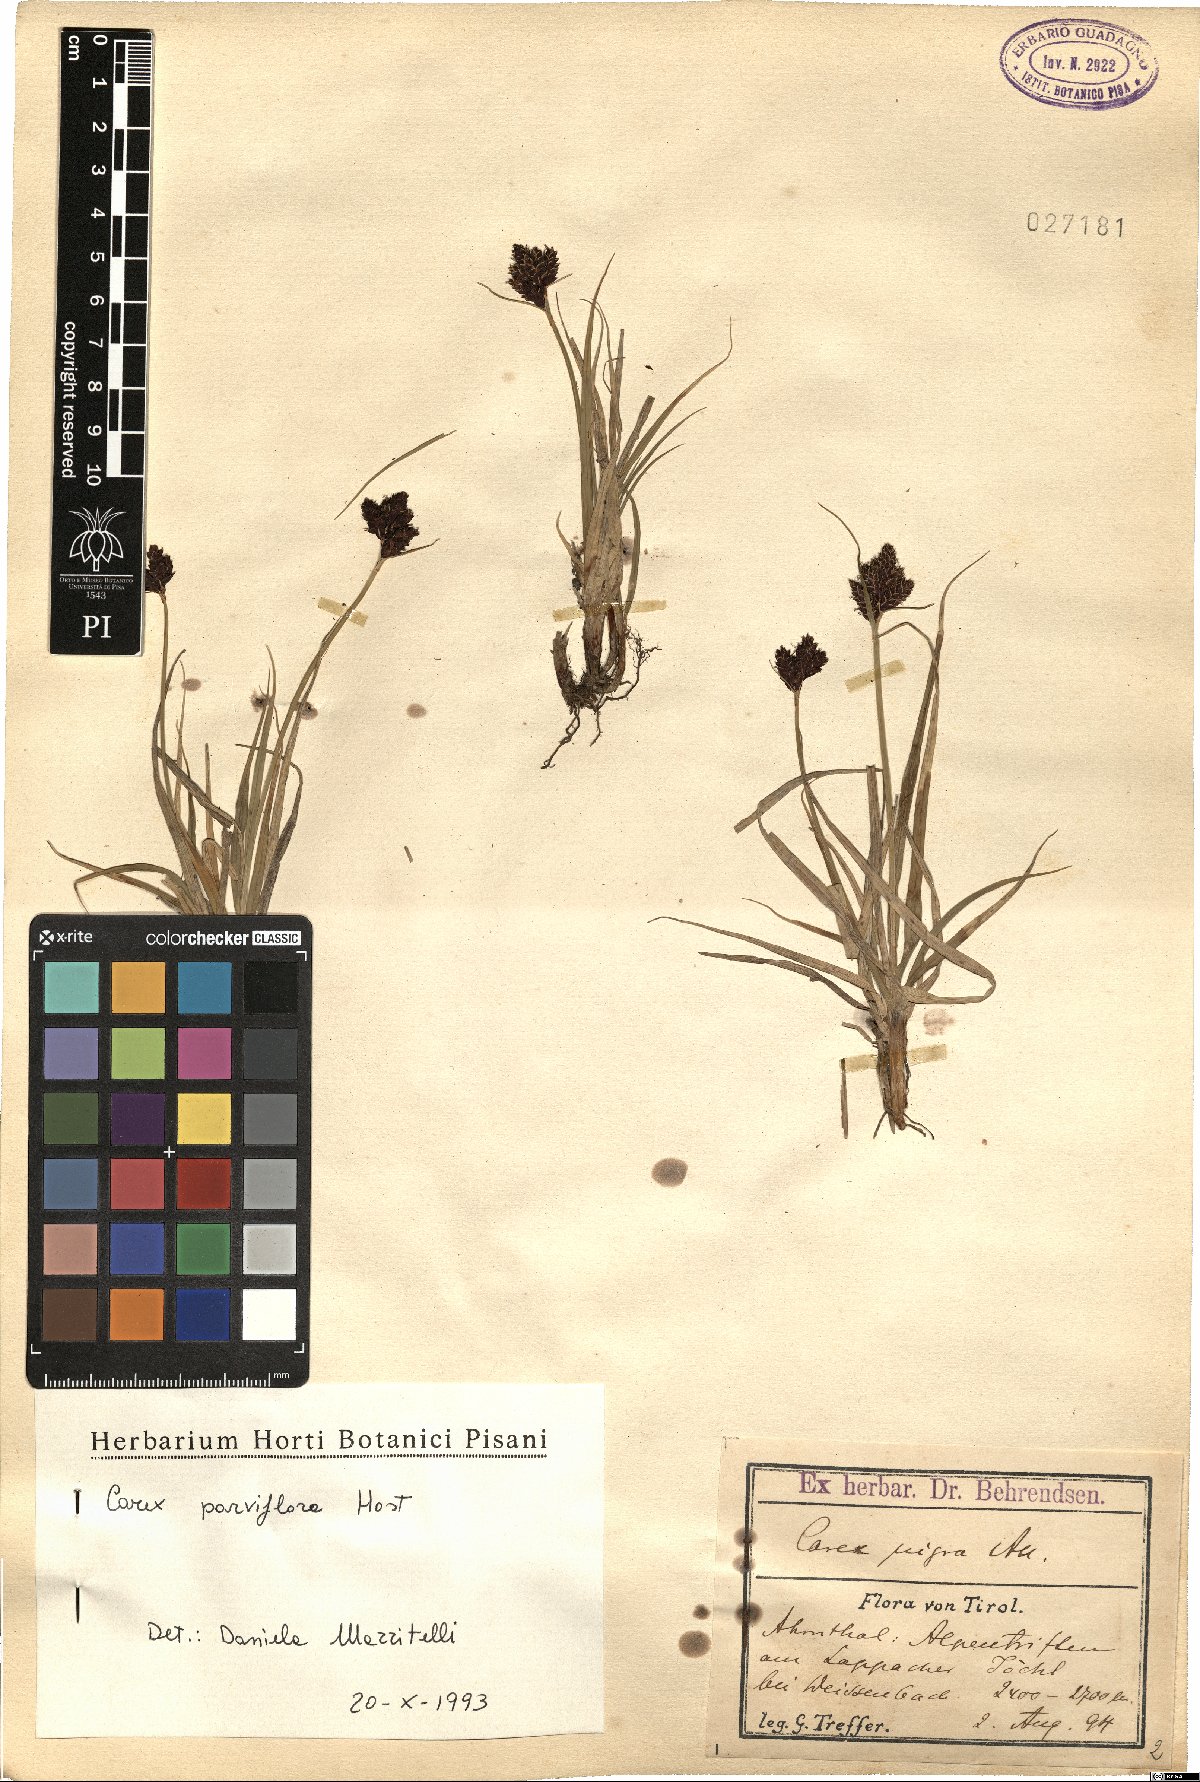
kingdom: Plantae
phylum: Tracheophyta
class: Liliopsida
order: Poales
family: Cyperaceae
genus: Carex
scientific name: Carex parviflora
